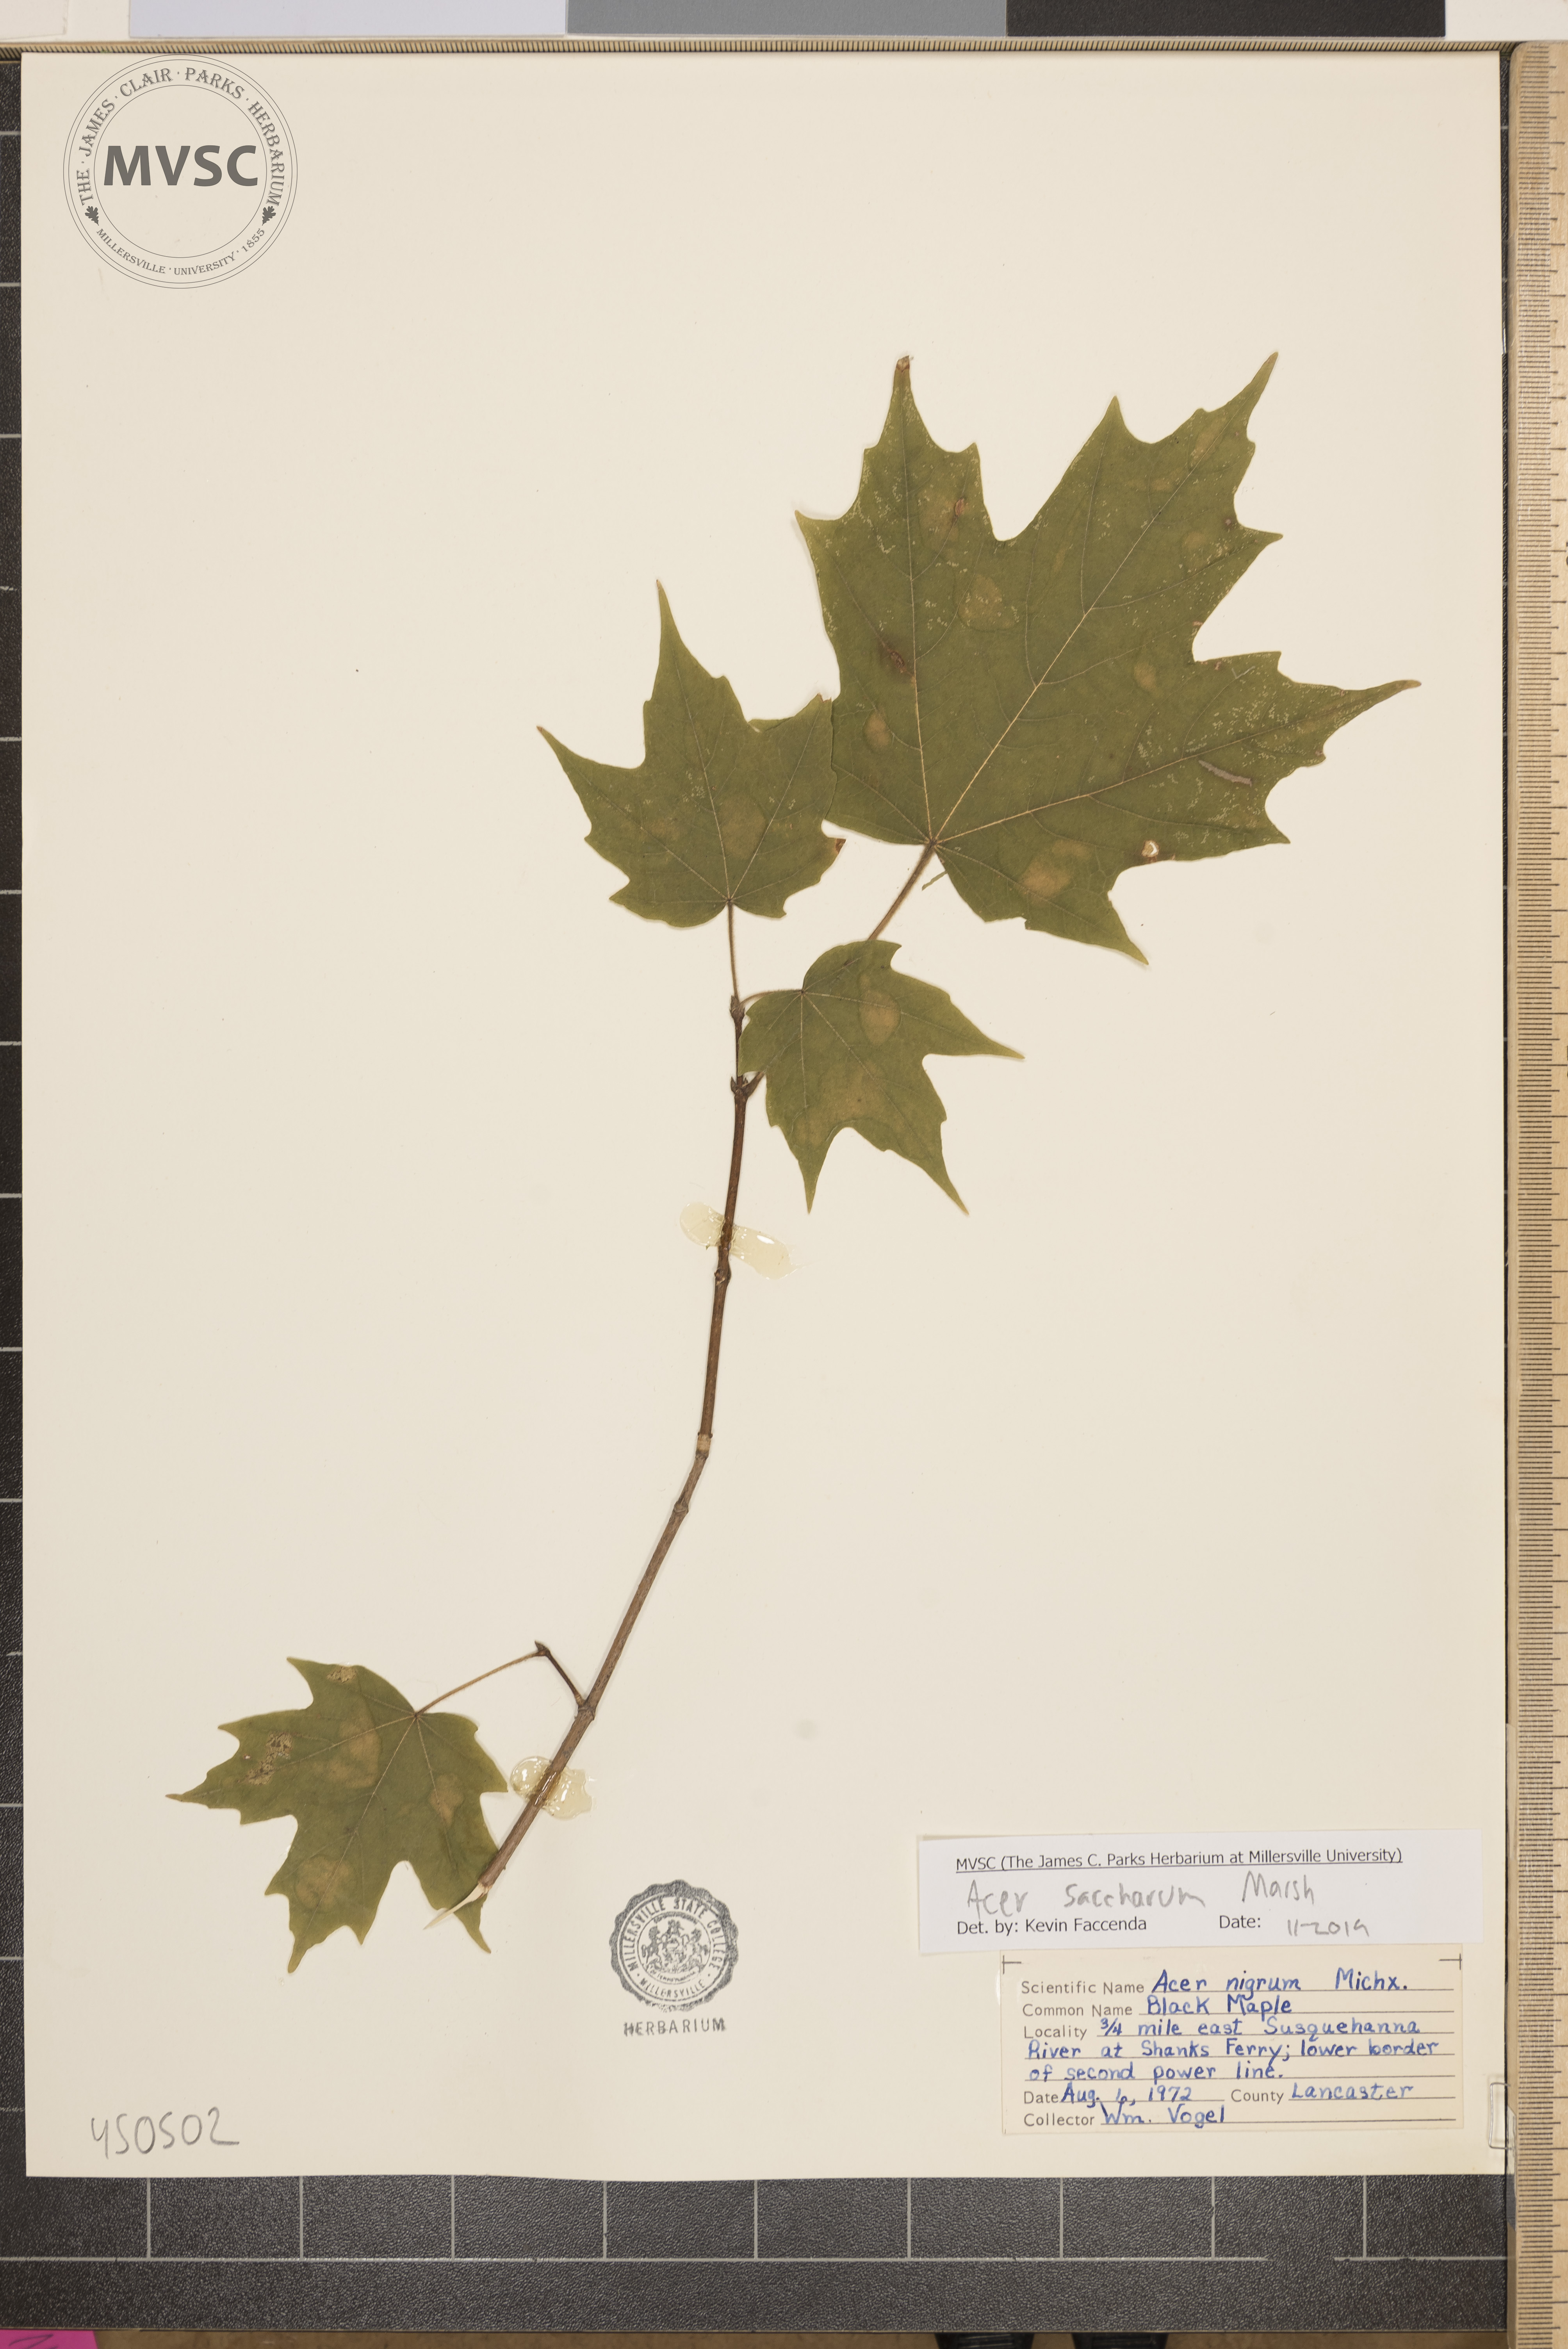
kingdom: Plantae
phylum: Tracheophyta
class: Magnoliopsida
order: Sapindales
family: Sapindaceae
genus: Acer
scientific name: Acer saccharum
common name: Sugar maple
